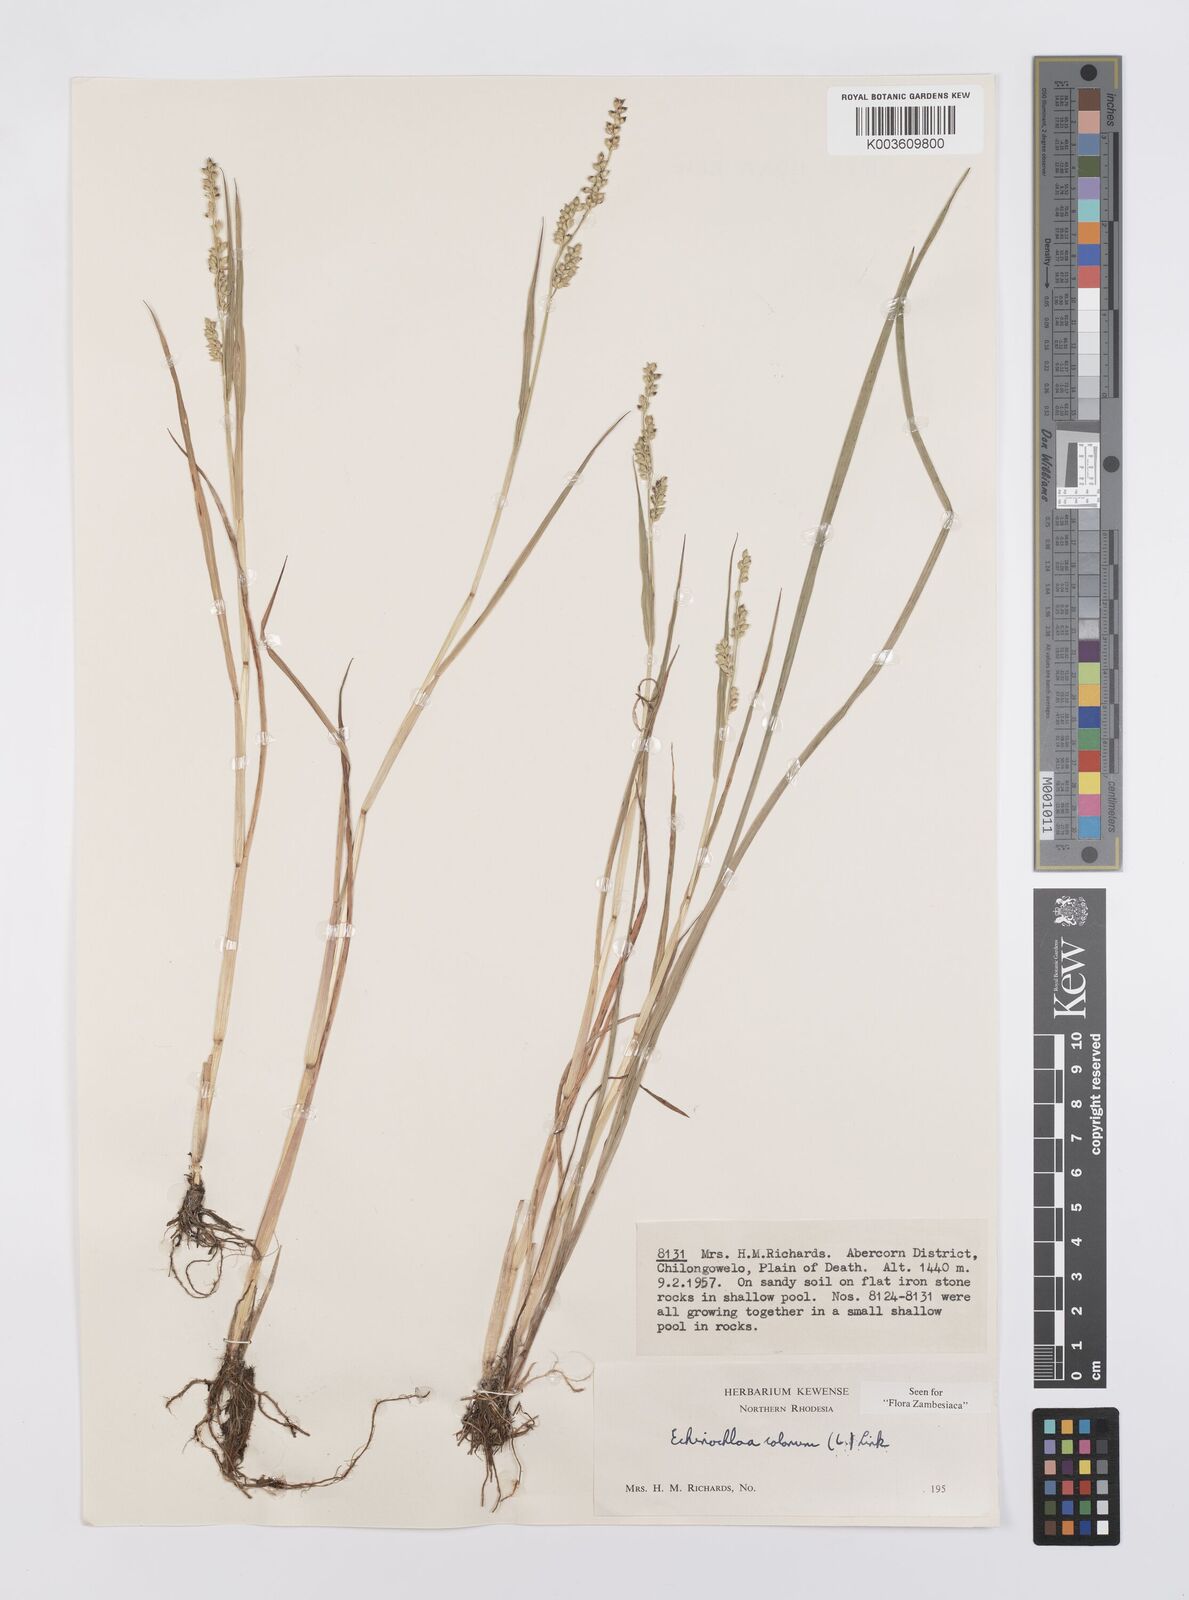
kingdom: Plantae
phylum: Tracheophyta
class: Liliopsida
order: Poales
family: Poaceae
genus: Echinochloa
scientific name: Echinochloa colonum
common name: Jungle rice
